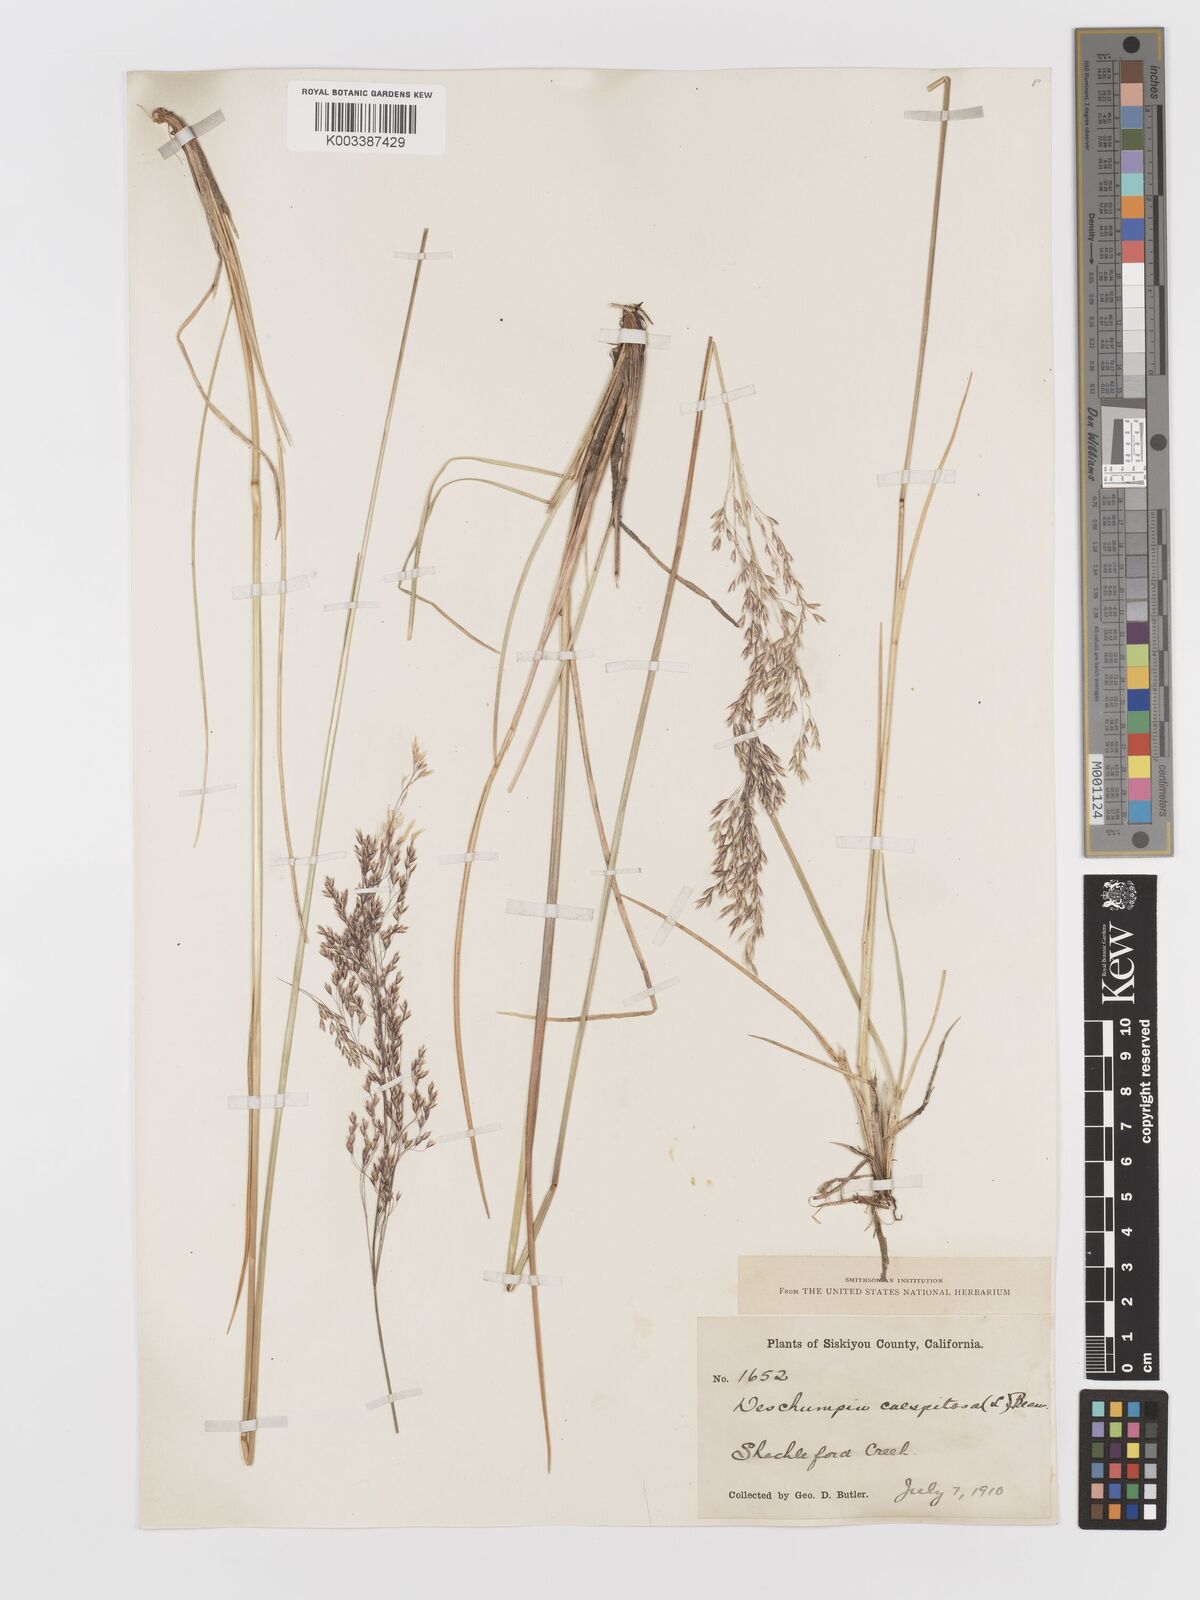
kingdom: Plantae
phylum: Tracheophyta
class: Liliopsida
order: Poales
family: Poaceae
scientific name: Poaceae
